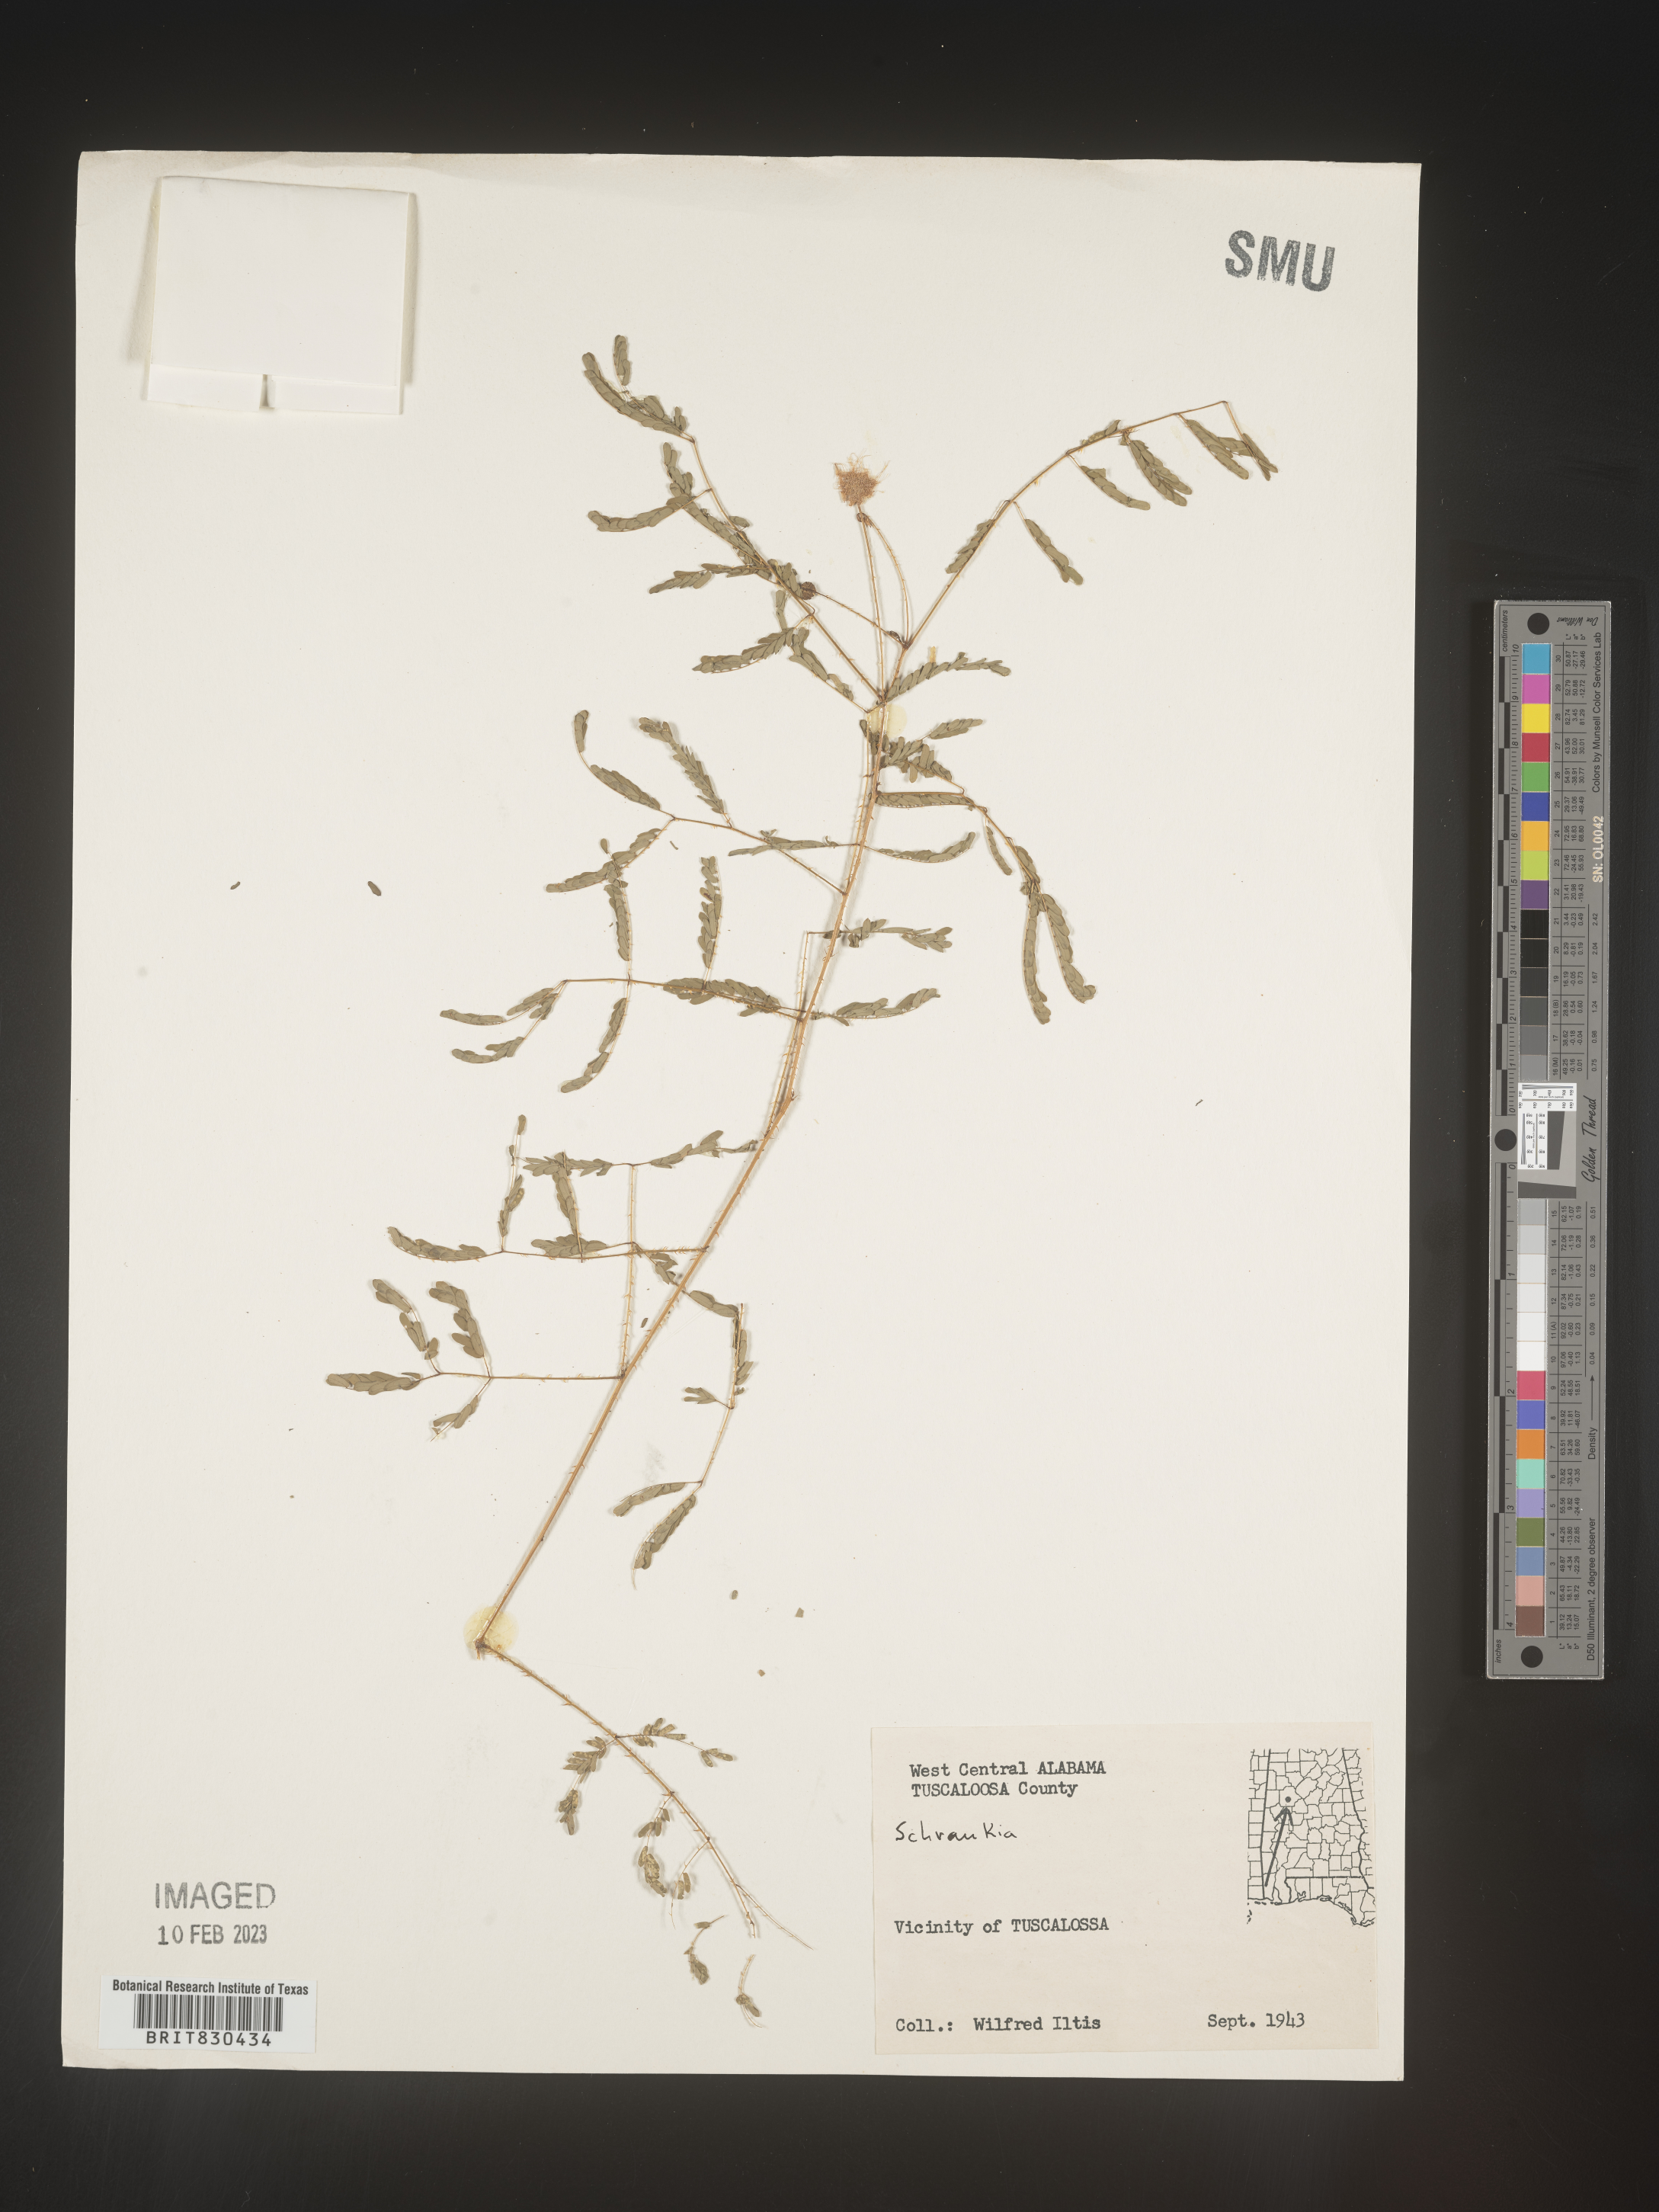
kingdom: Plantae
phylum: Tracheophyta
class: Magnoliopsida
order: Fabales
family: Fabaceae
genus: Mimosa
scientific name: Mimosa
